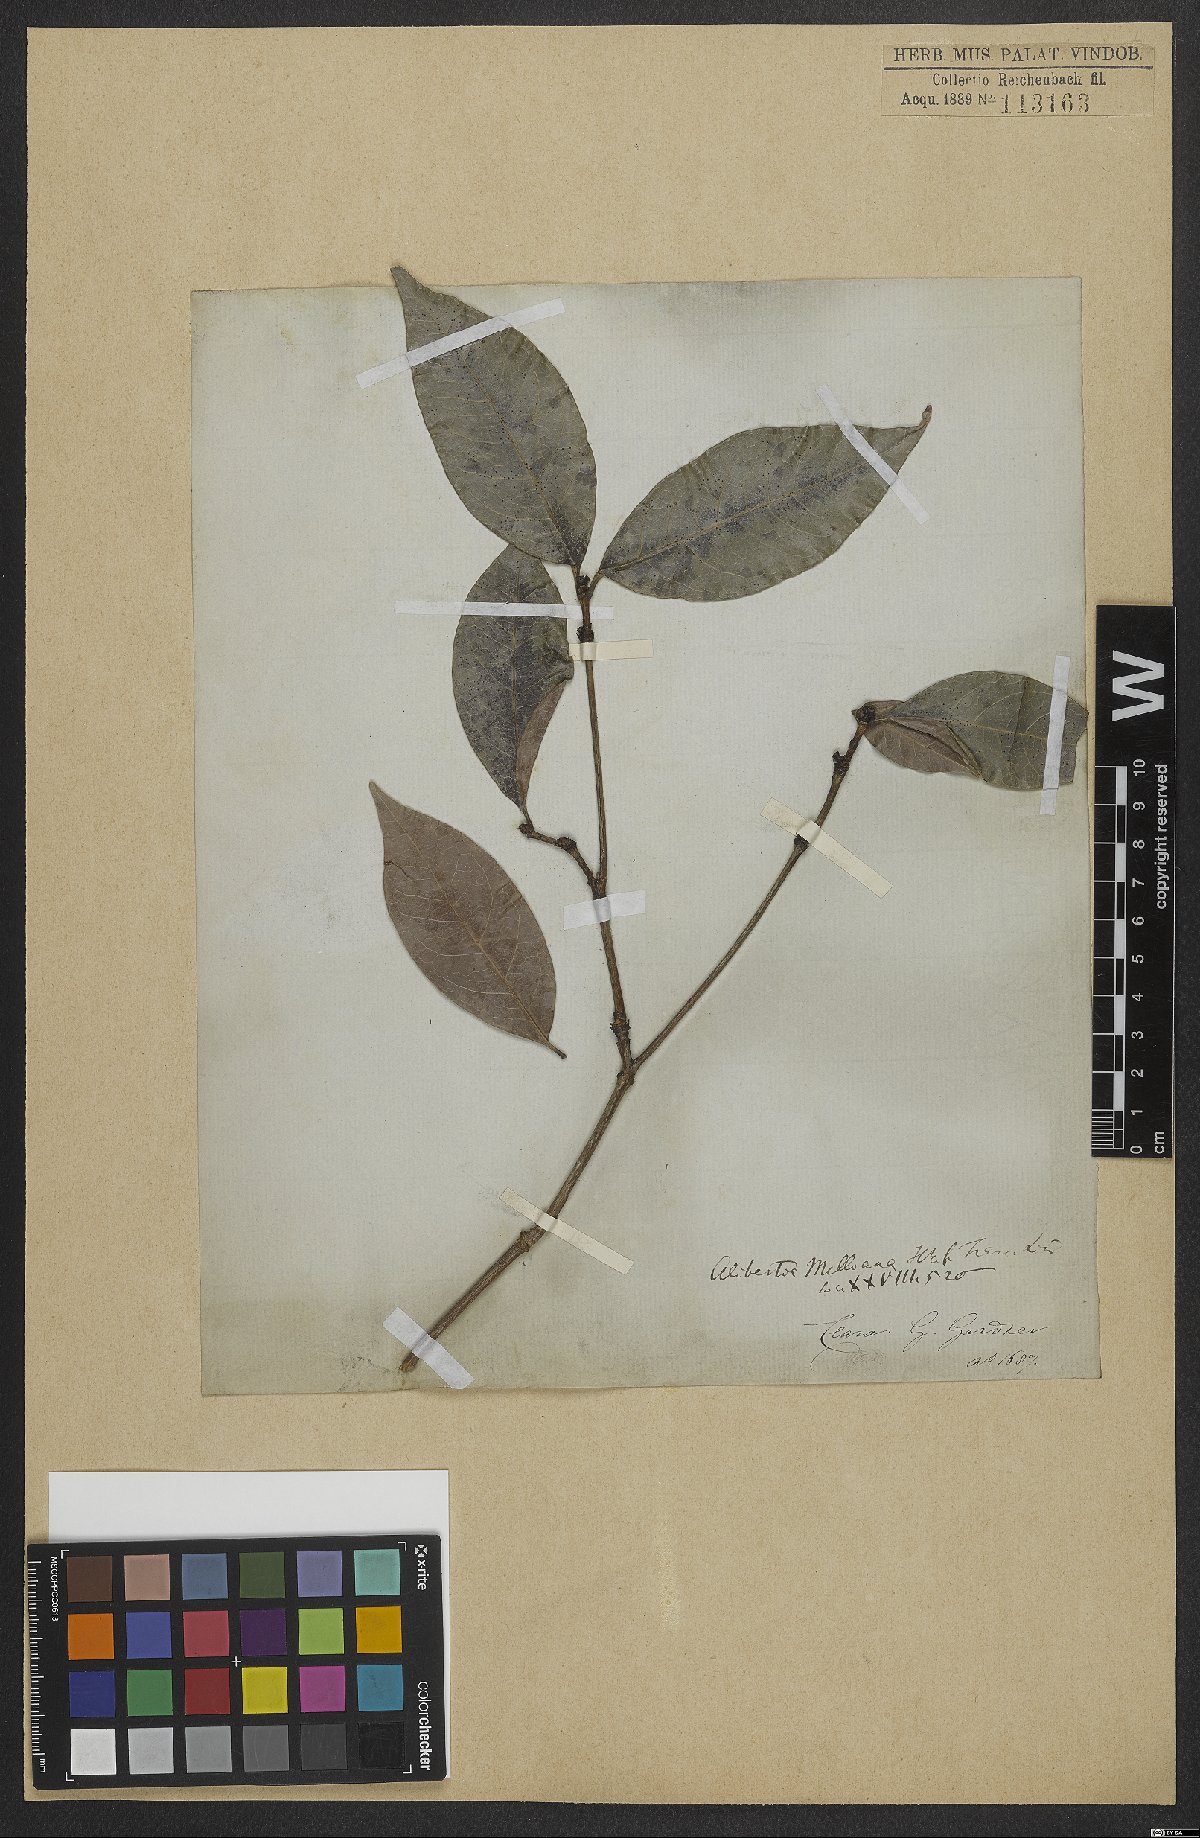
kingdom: Plantae
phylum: Tracheophyta
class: Magnoliopsida
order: Gentianales
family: Rubiaceae
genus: Cordiera
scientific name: Cordiera sessilis
